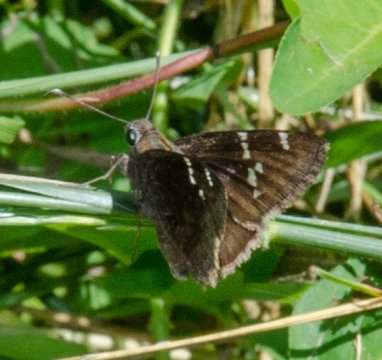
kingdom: Animalia
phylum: Arthropoda
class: Insecta
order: Lepidoptera
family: Hesperiidae
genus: Autochton
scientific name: Autochton
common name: Southern Cloudywing
